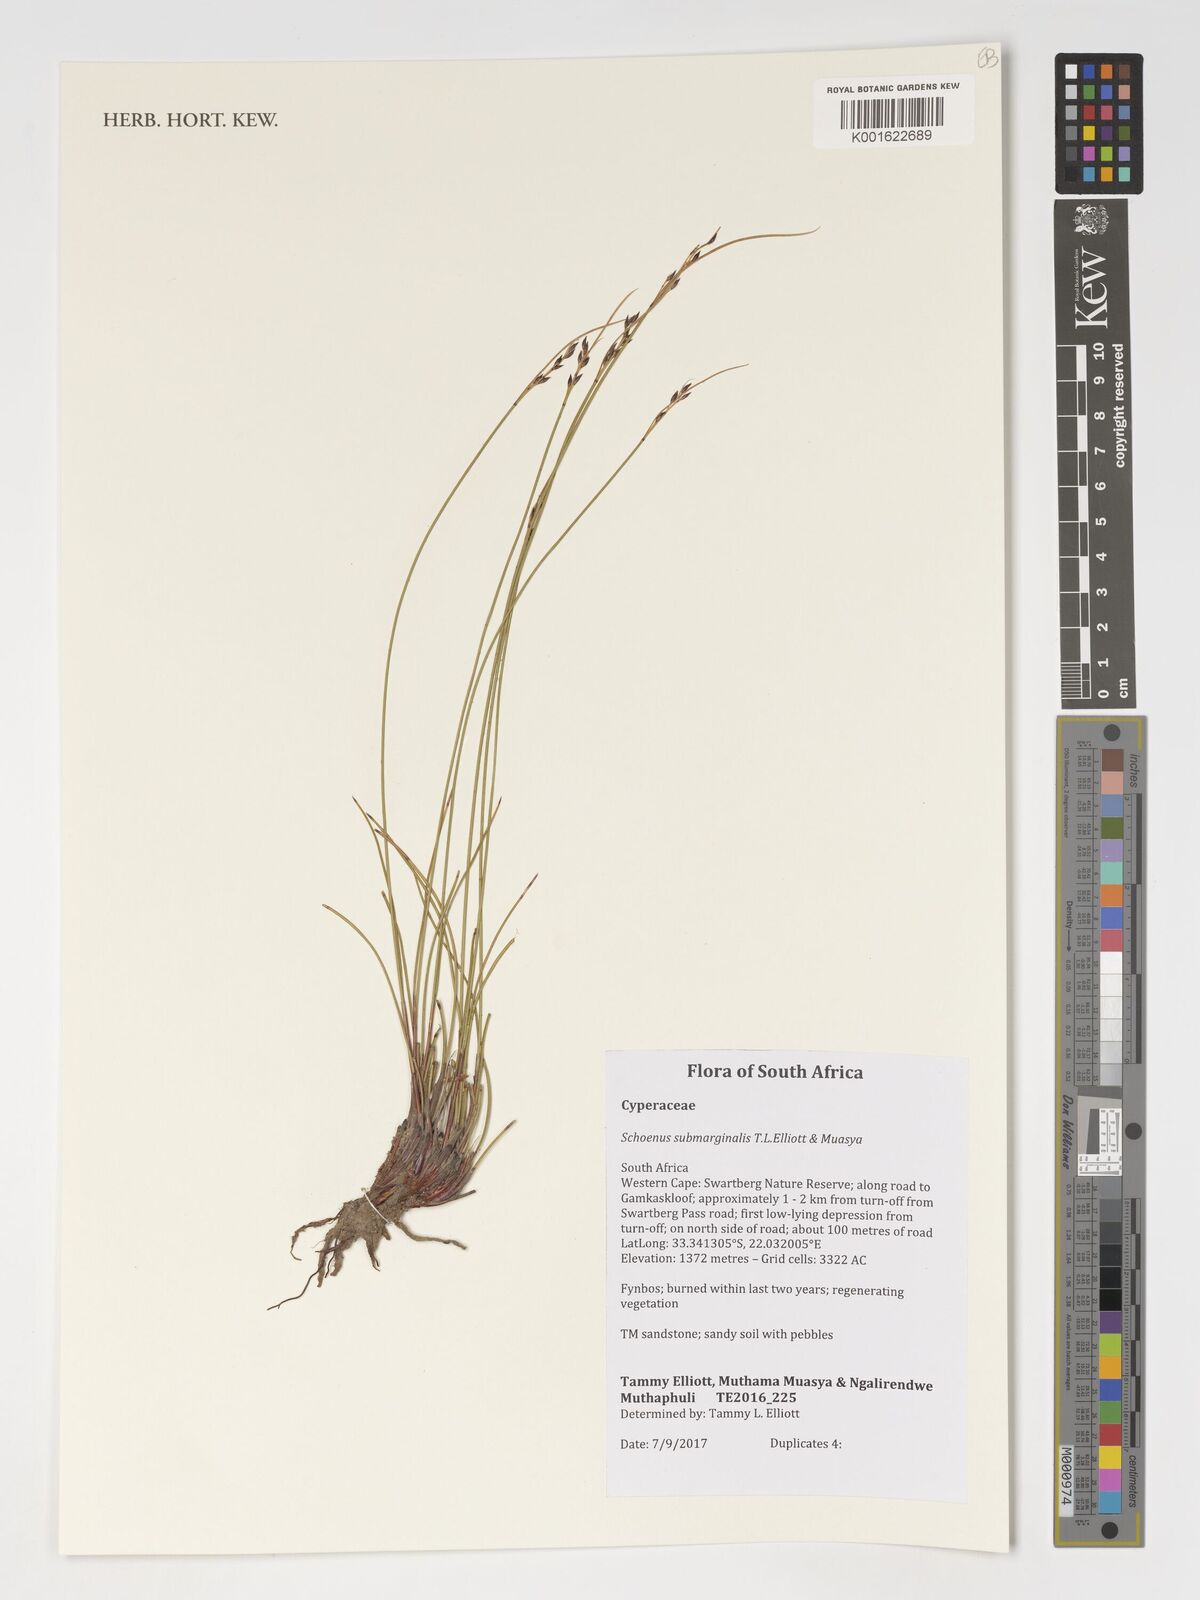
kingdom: Plantae
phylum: Tracheophyta
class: Liliopsida
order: Poales
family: Cyperaceae
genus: Schoenus
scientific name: Schoenus submarginalis
